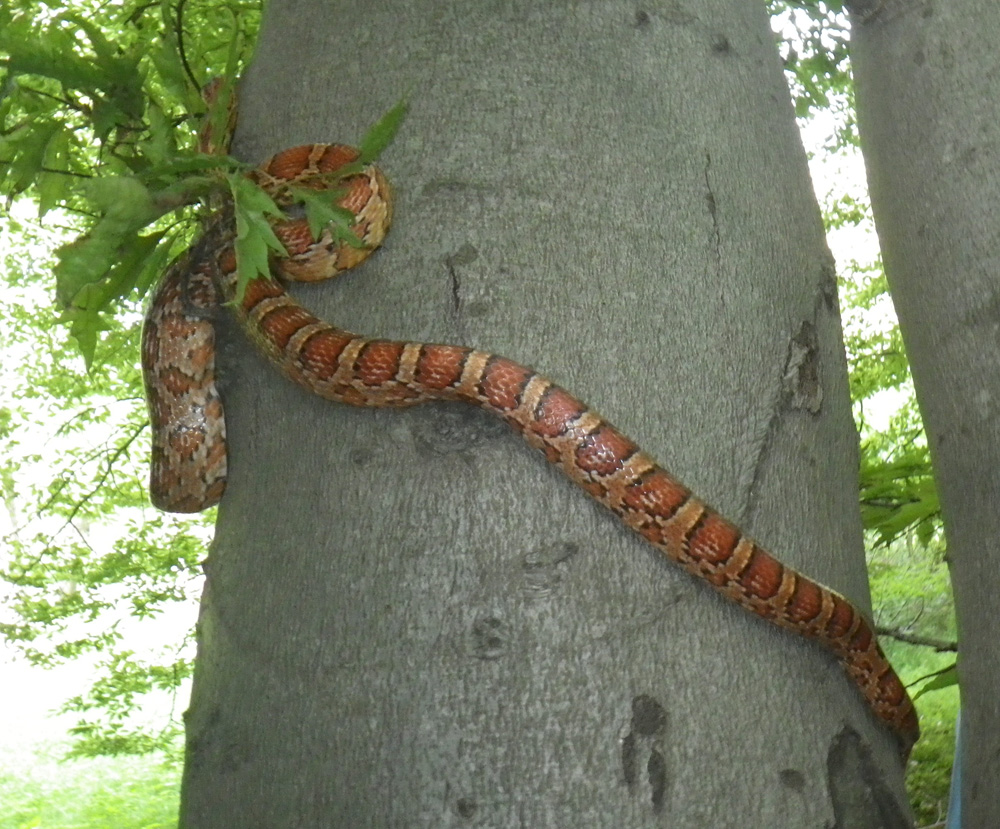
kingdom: Animalia
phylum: Chordata
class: Squamata
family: Colubridae
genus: Pantherophis
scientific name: Pantherophis guttatus
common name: Red cornsnake
